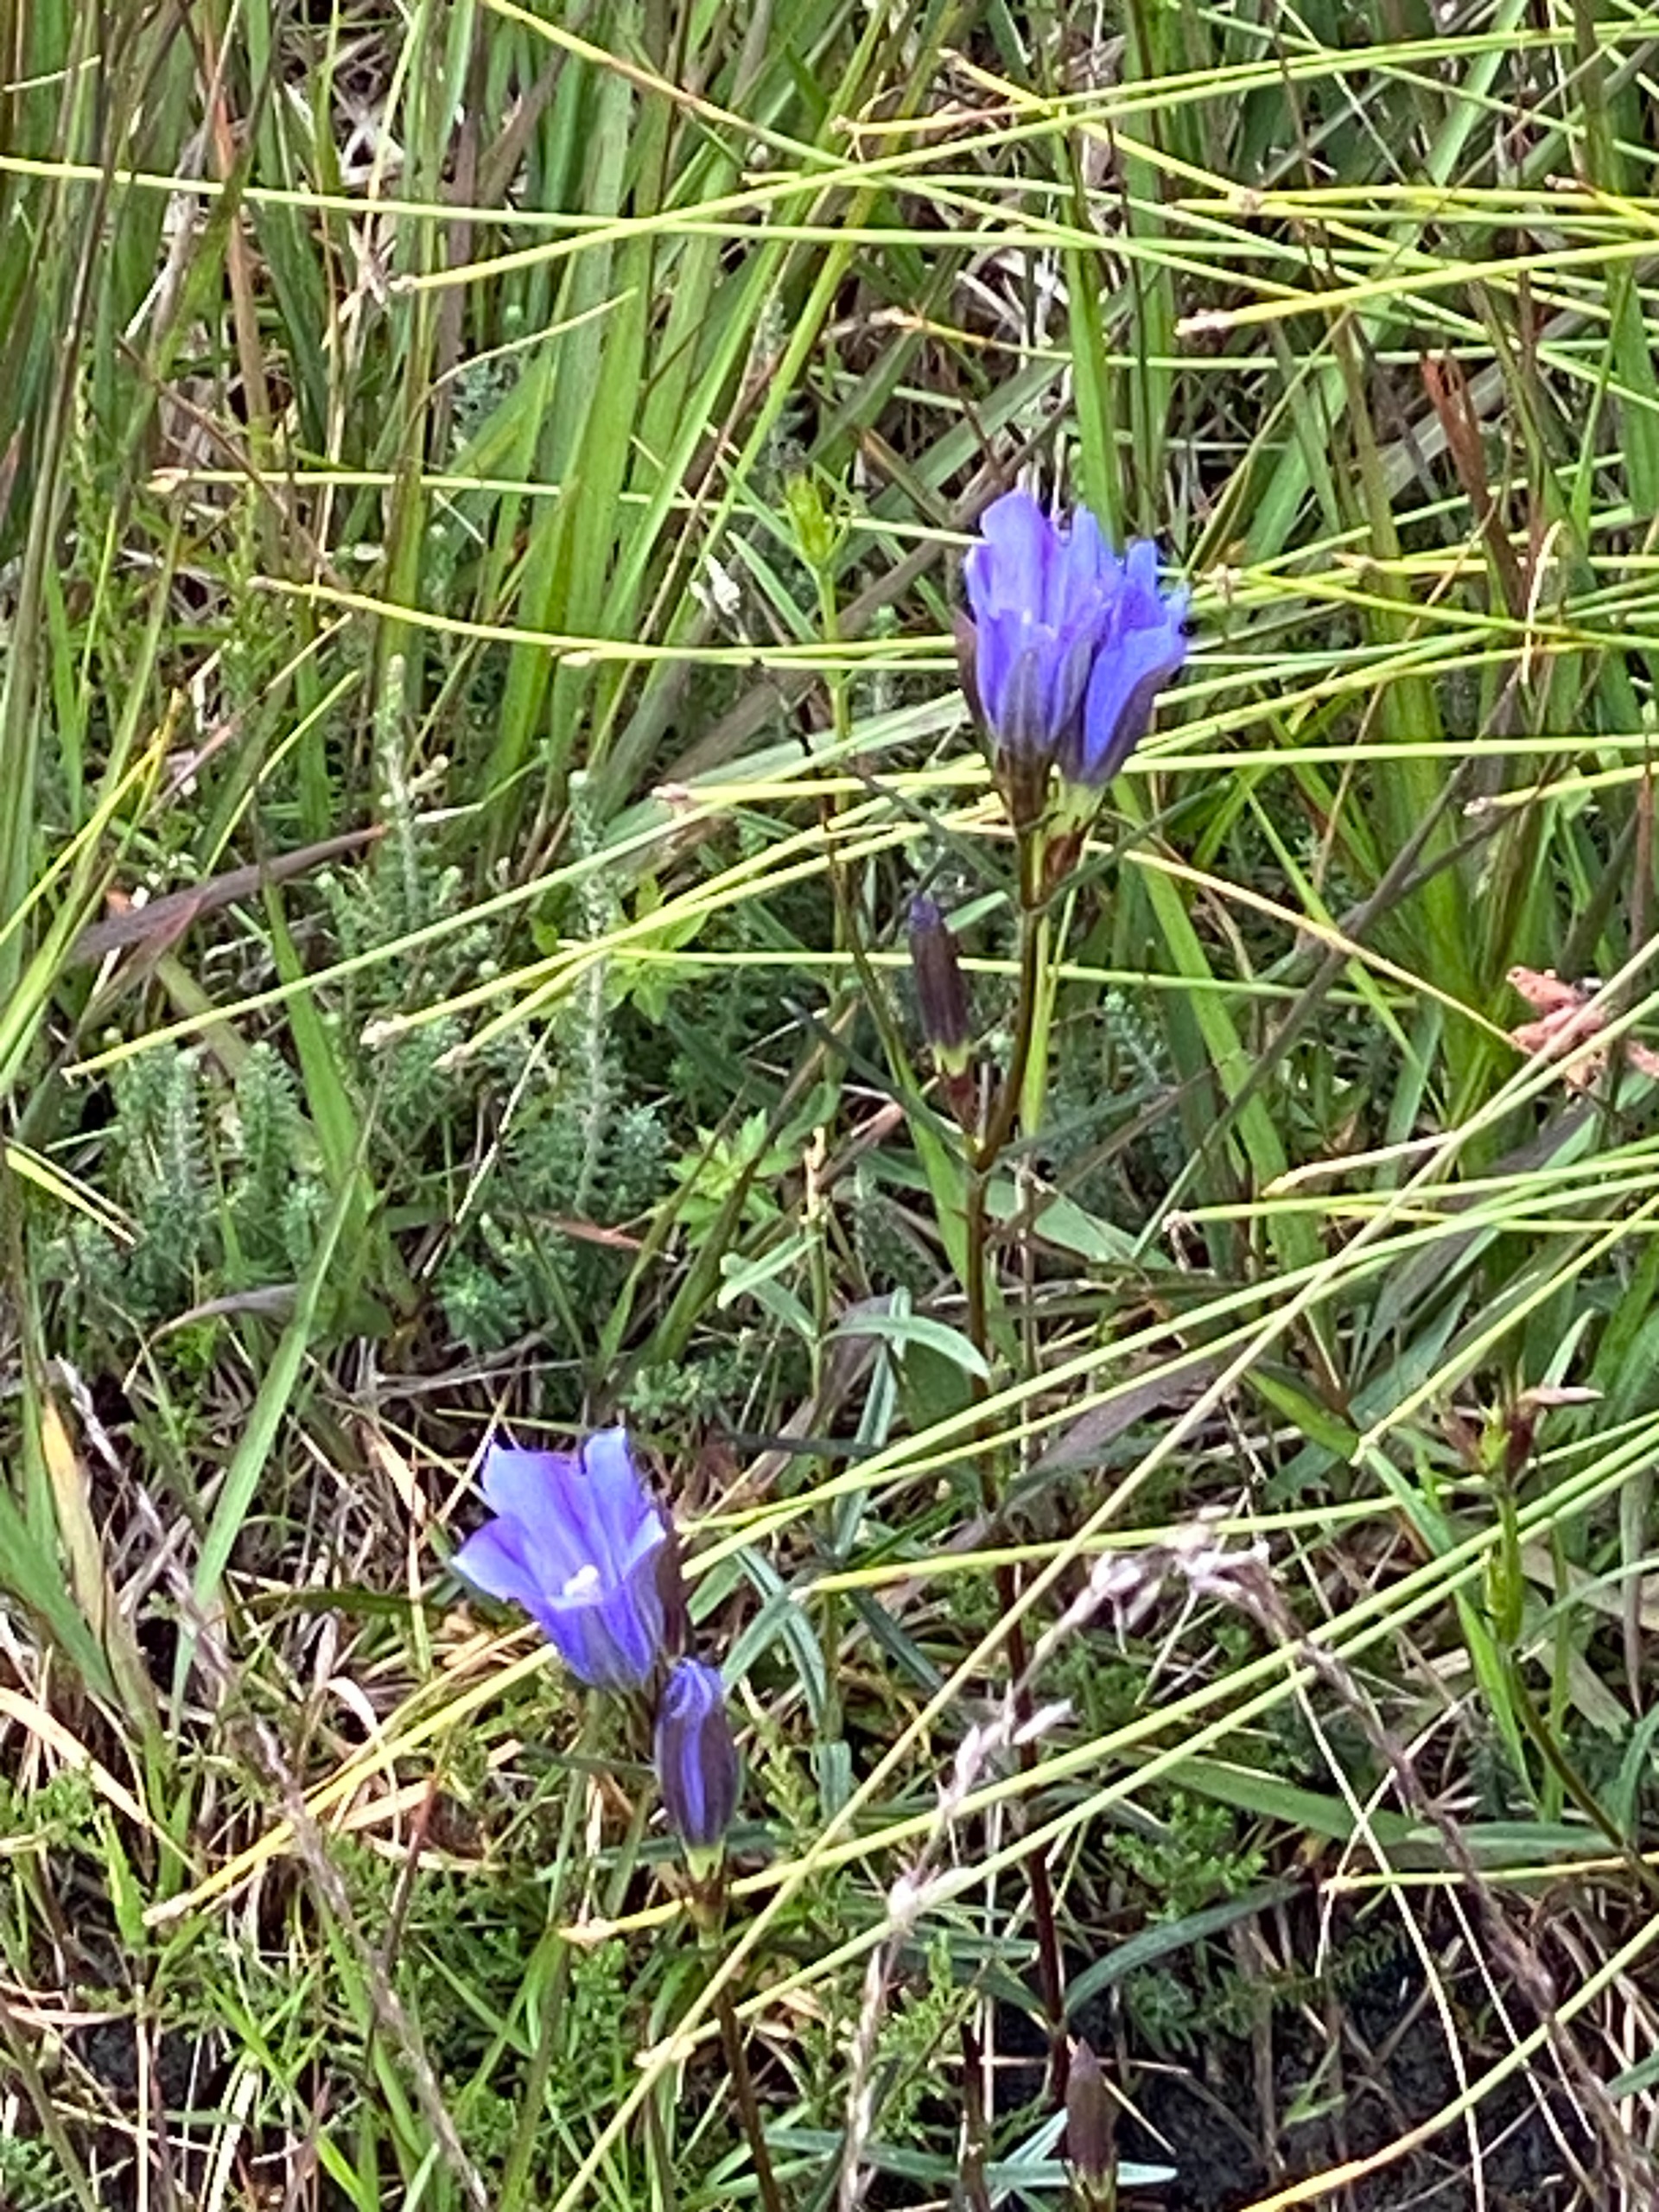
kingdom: Plantae
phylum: Tracheophyta
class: Magnoliopsida
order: Gentianales
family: Gentianaceae
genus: Gentiana
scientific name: Gentiana pneumonanthe
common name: Klokke-ensian
